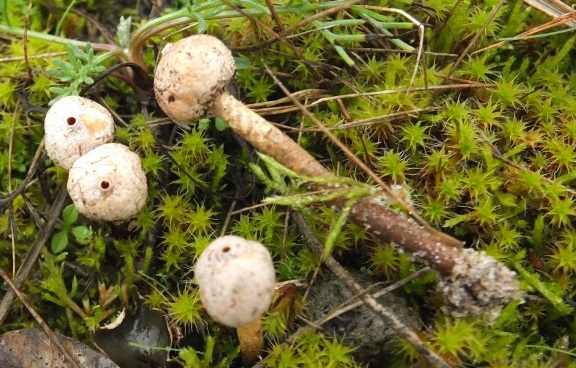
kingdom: Fungi
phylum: Basidiomycota
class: Agaricomycetes
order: Polyporales
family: Polyporaceae
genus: Lentinus
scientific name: Lentinus brumalis
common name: vinter-stilkporesvamp
